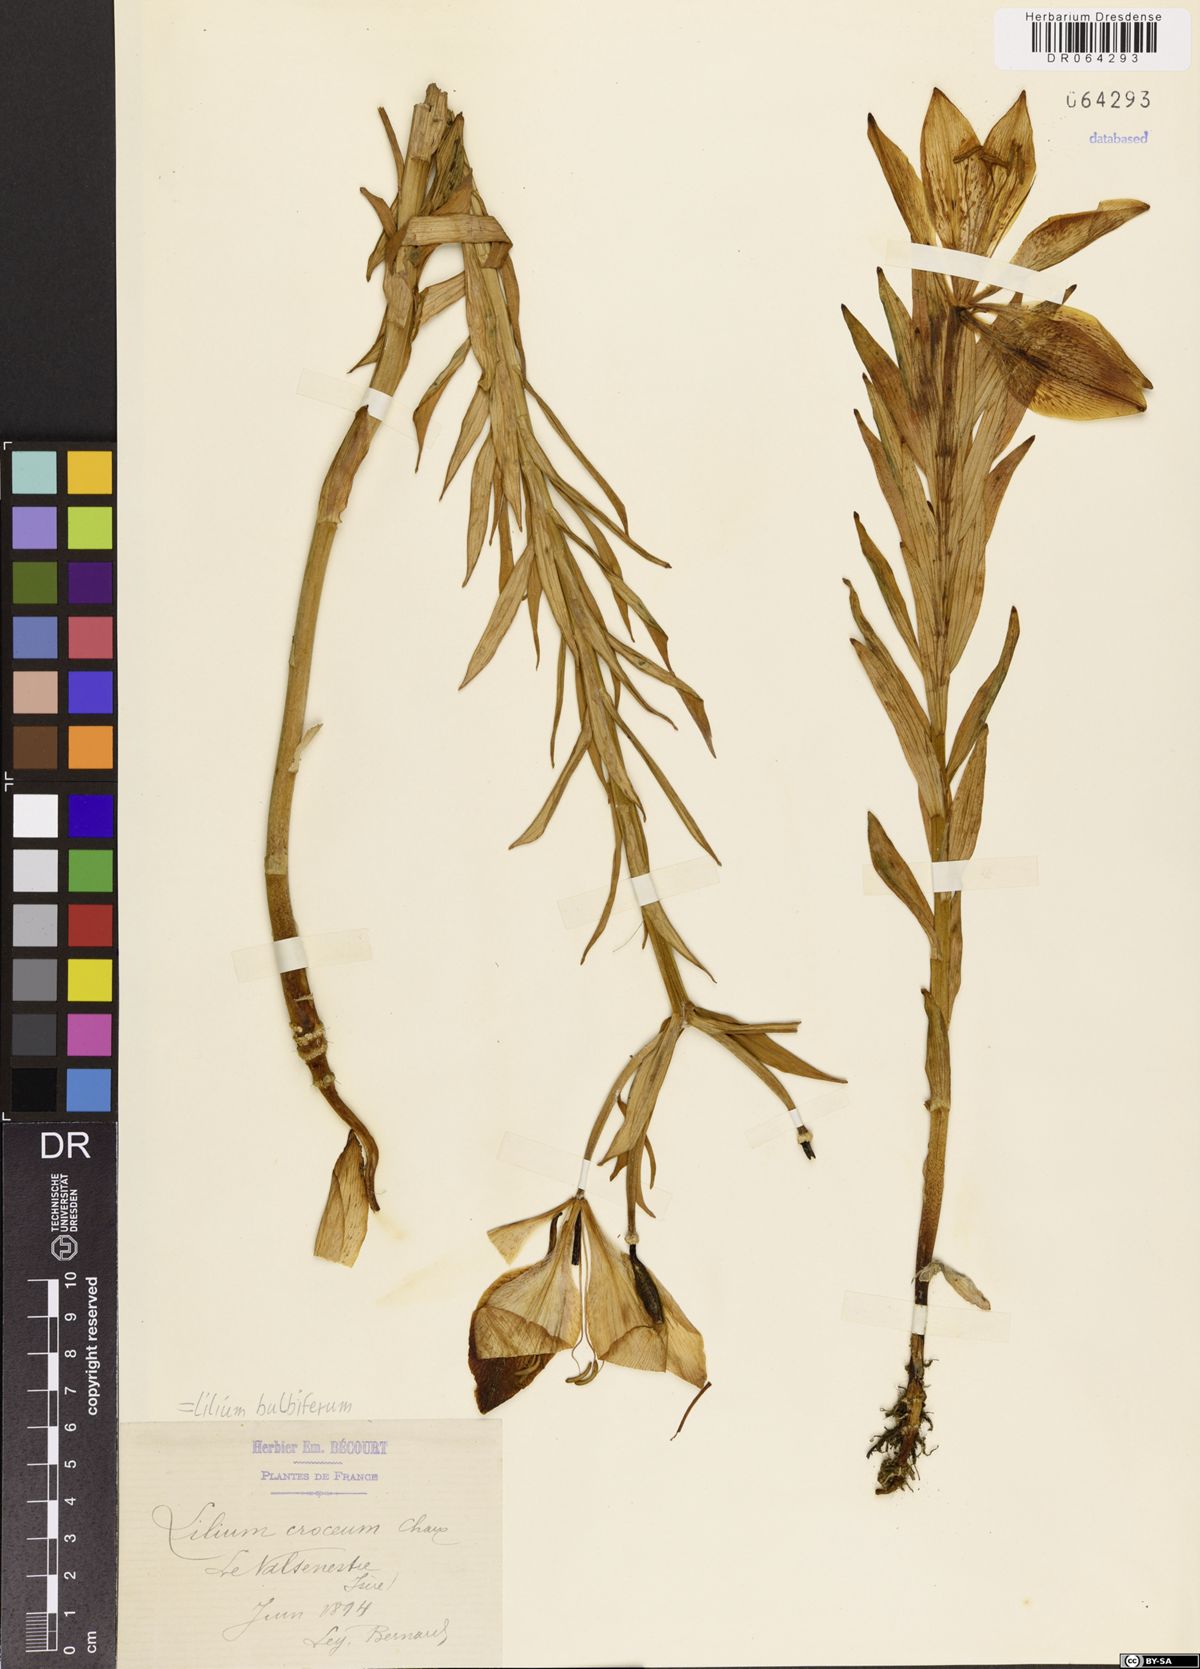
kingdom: Plantae
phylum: Tracheophyta
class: Liliopsida
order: Liliales
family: Liliaceae
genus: Lilium
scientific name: Lilium bulbiferum
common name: Orange lily
